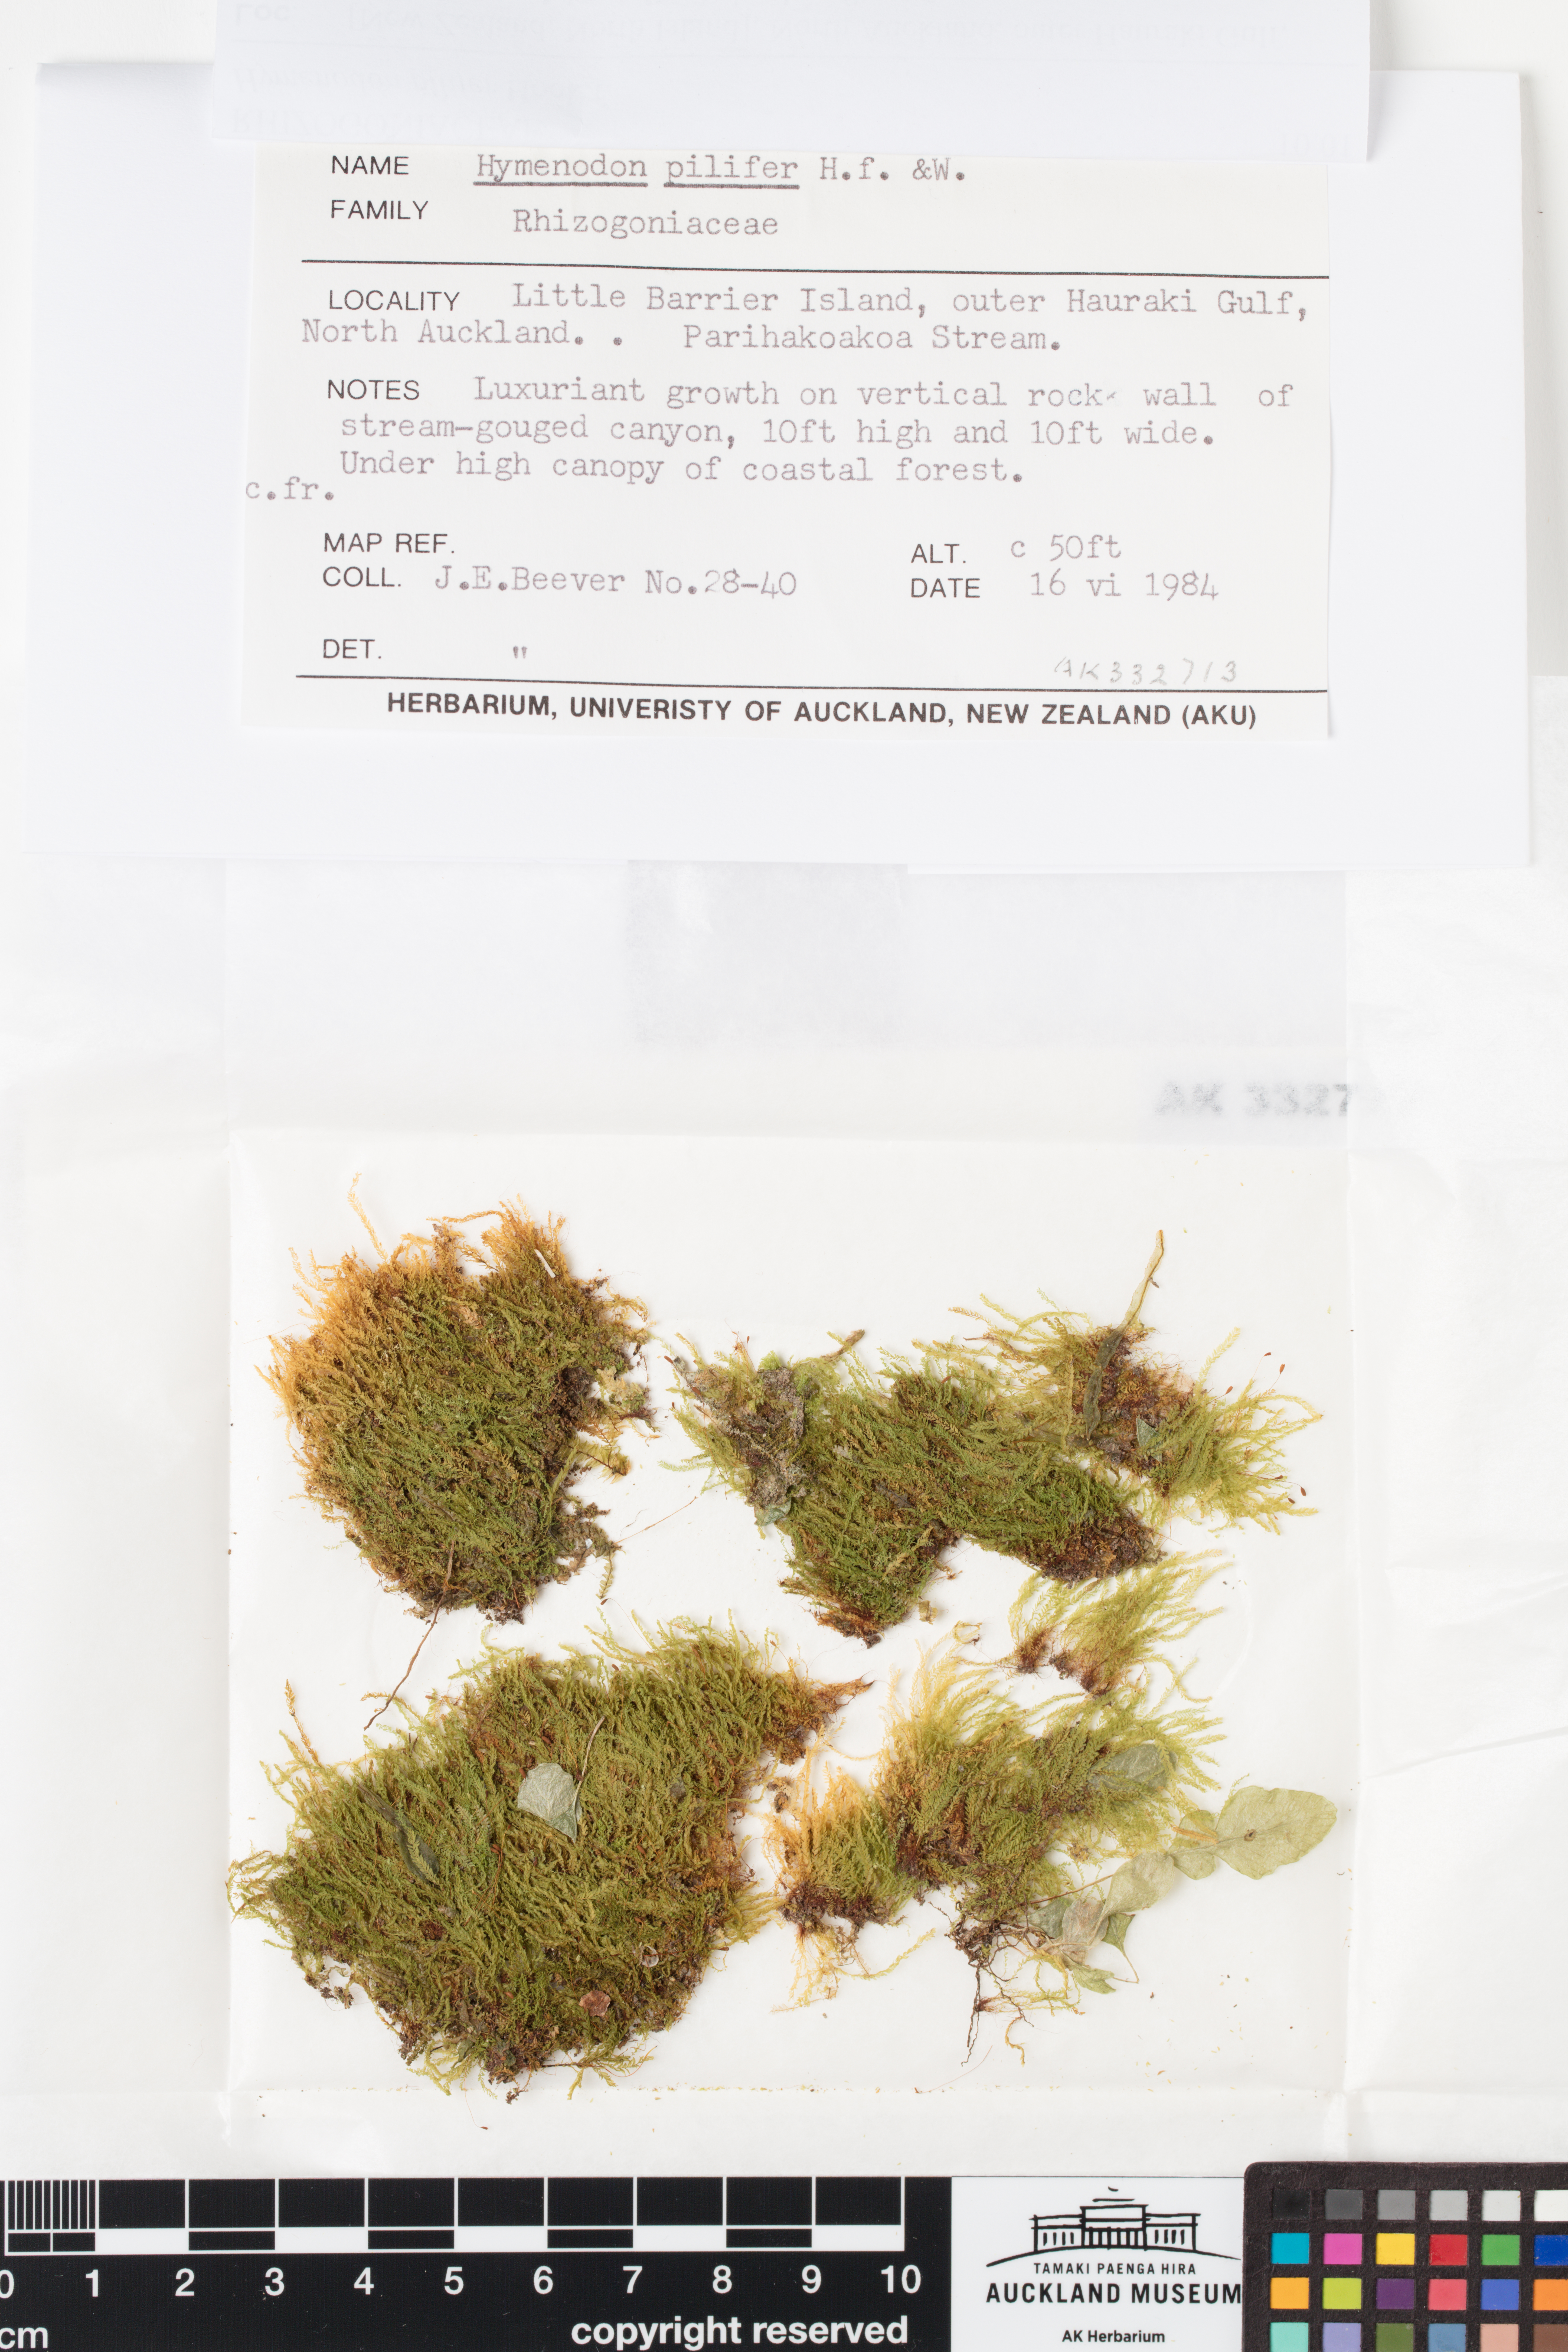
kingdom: Plantae
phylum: Bryophyta
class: Bryopsida
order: Orthodontiales
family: Orthodontiaceae
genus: Hymenodon
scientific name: Hymenodon pilifer
